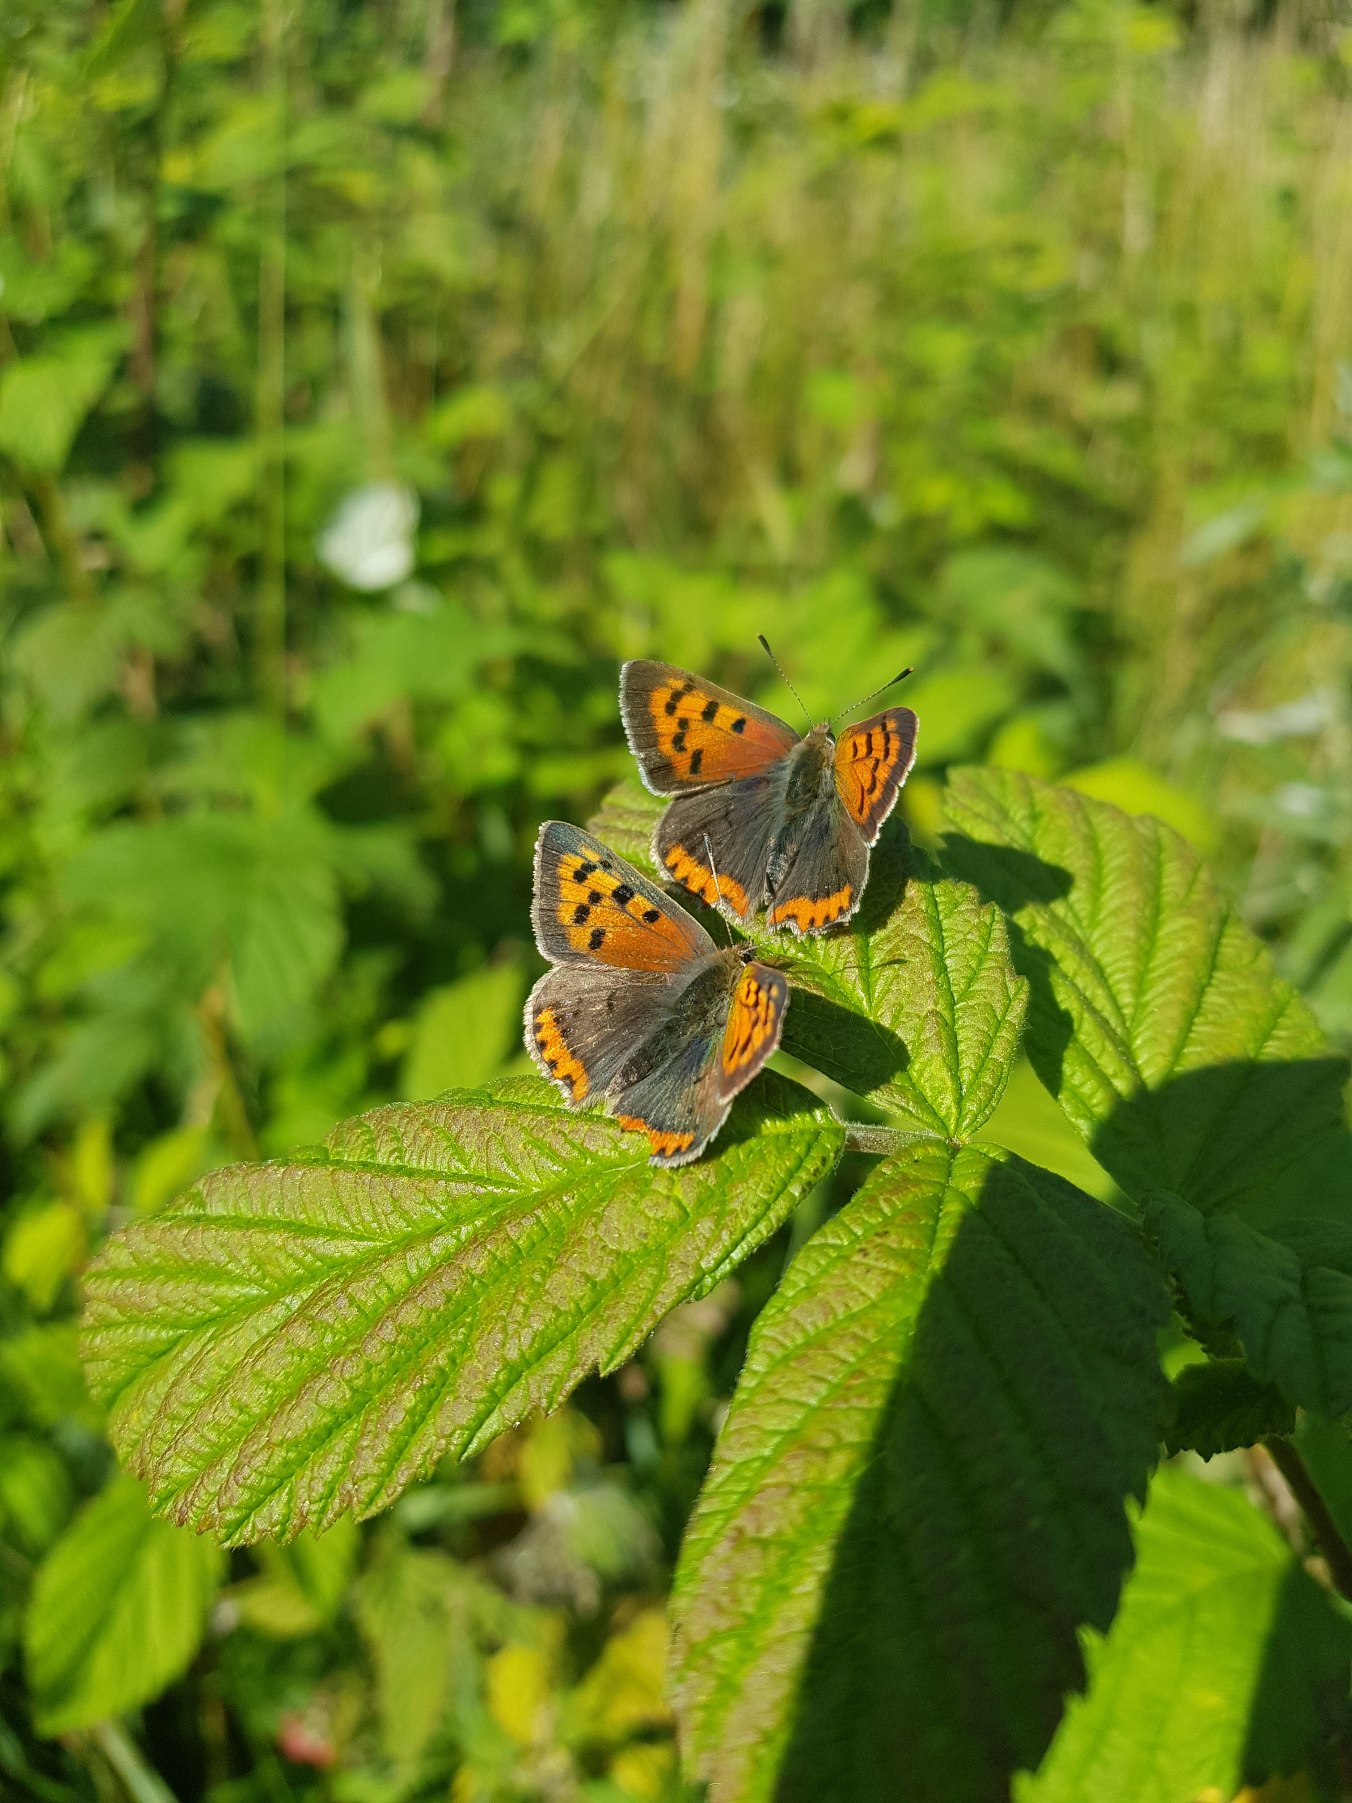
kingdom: Animalia
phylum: Arthropoda
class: Insecta
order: Lepidoptera
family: Lycaenidae
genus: Lycaena
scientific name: Lycaena phlaeas
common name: Lille ildfugl
